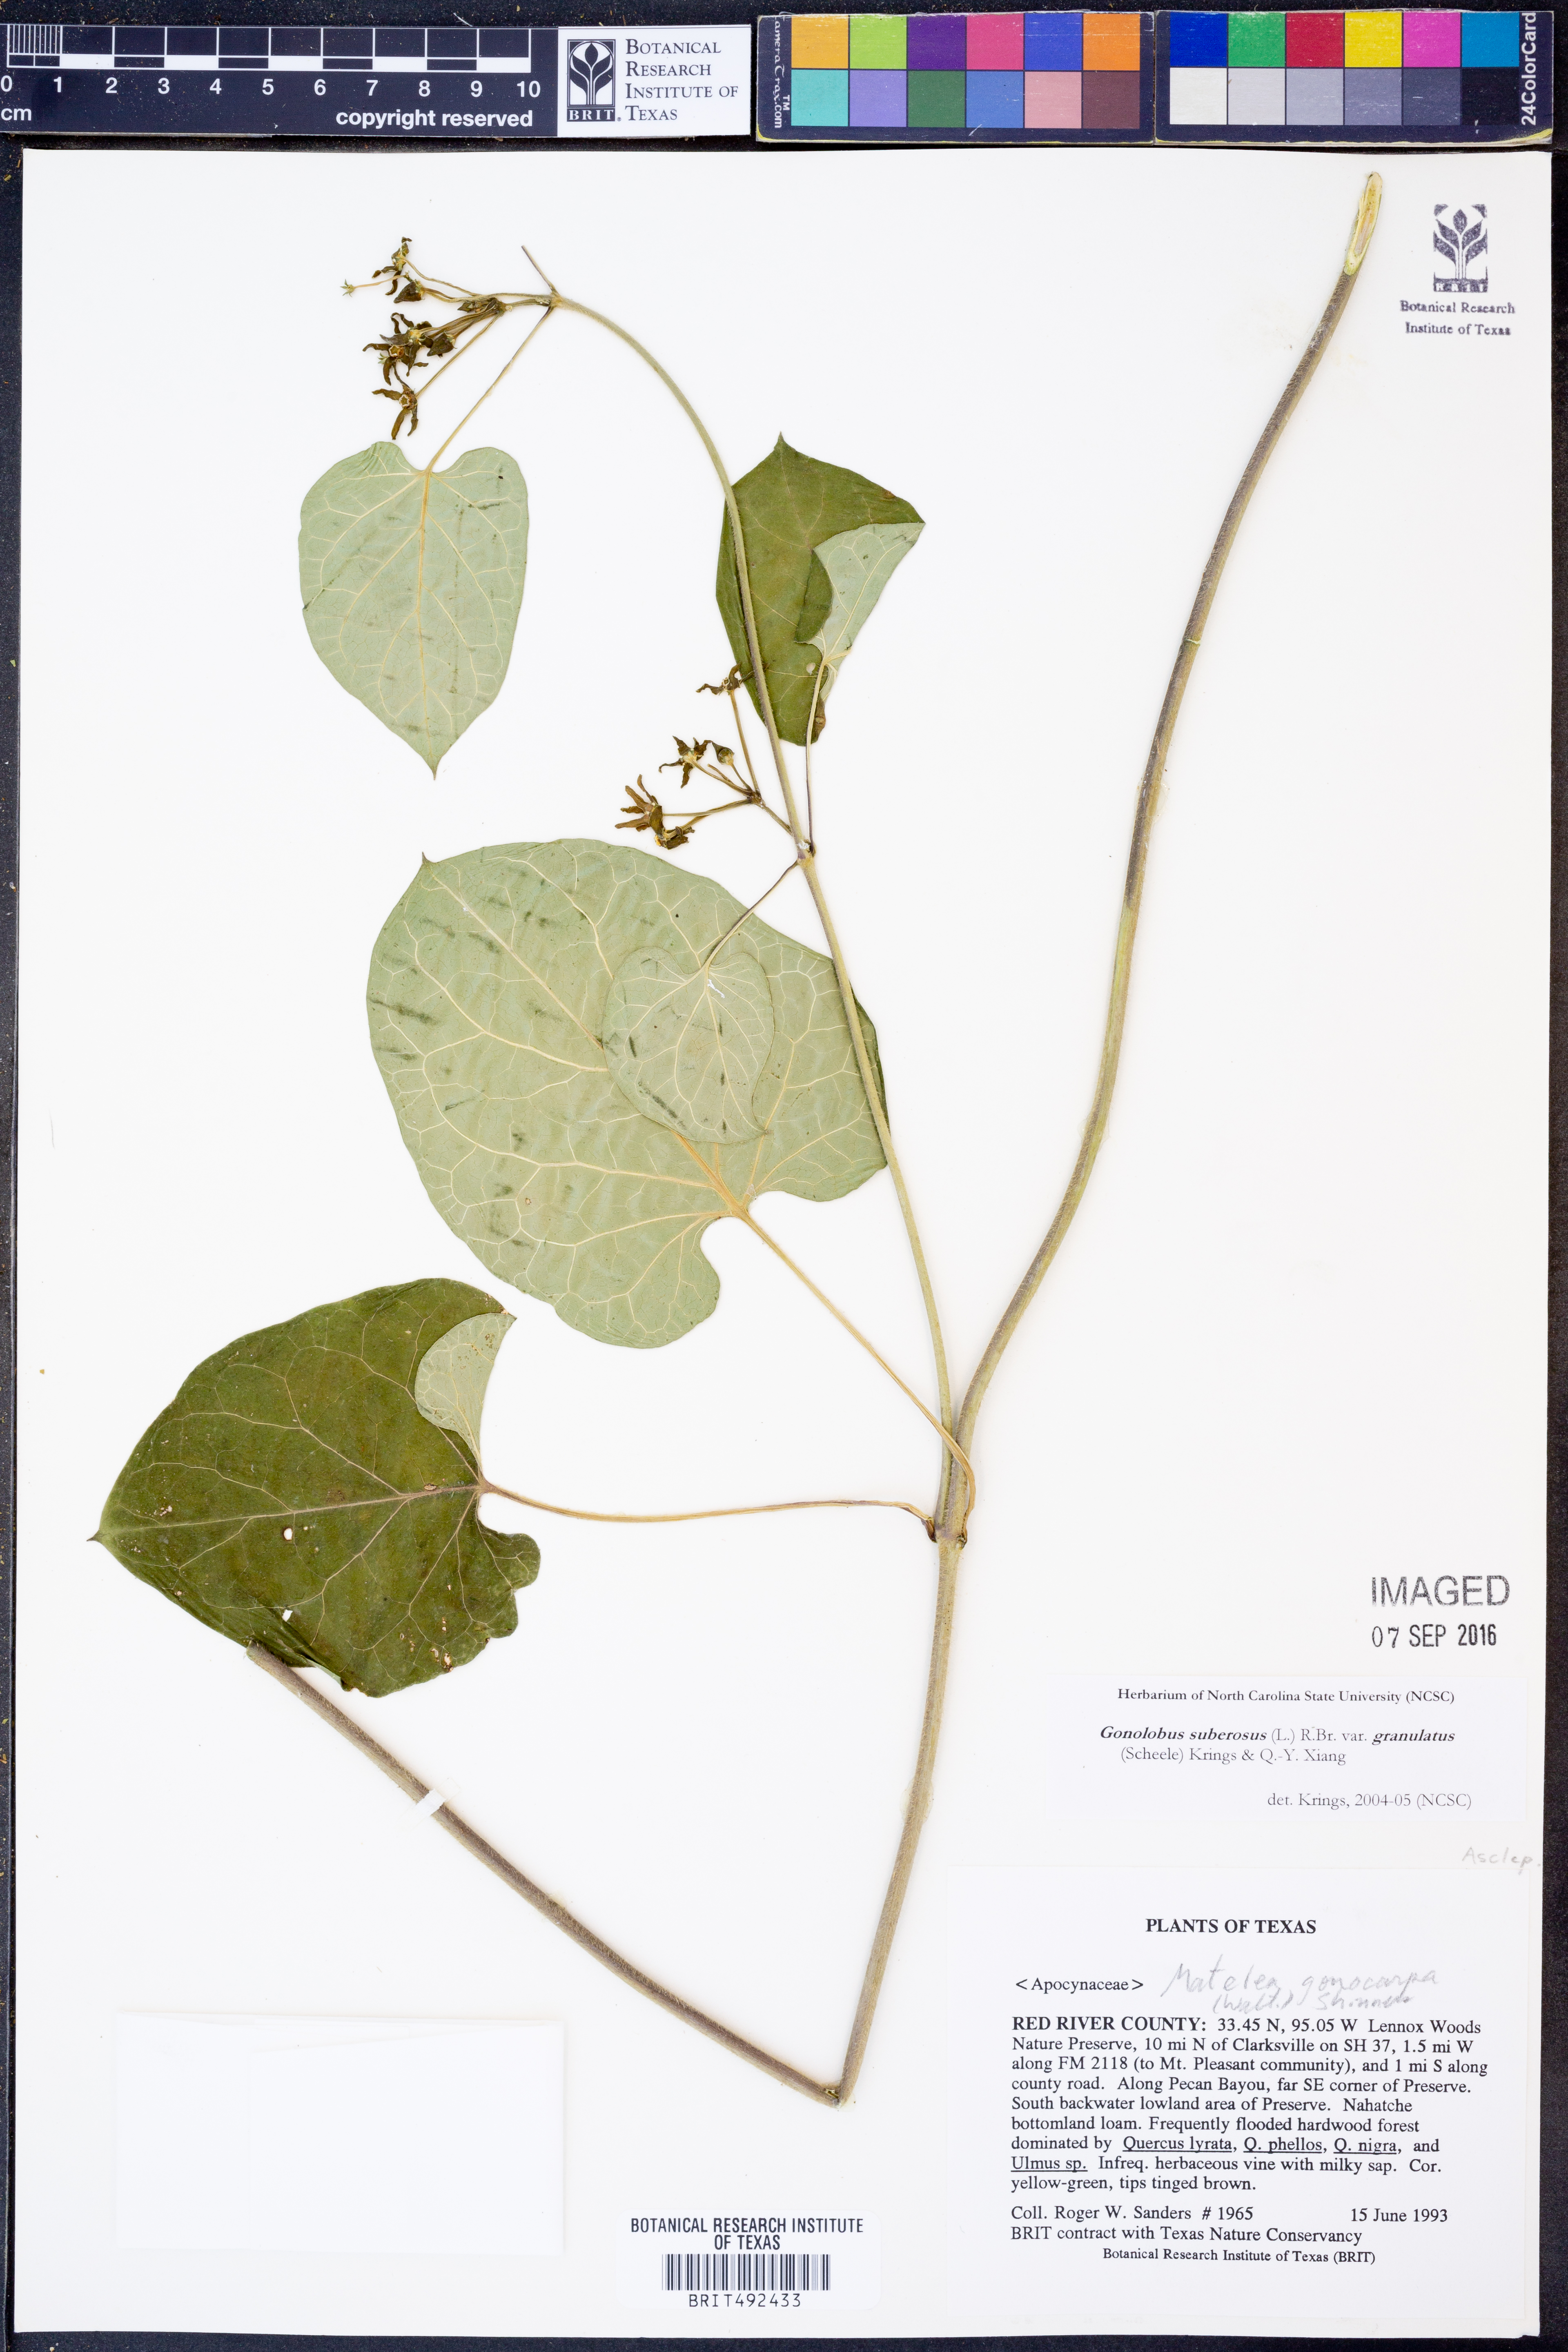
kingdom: Plantae
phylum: Tracheophyta
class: Magnoliopsida
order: Gentianales
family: Apocynaceae
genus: Gonolobus
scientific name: Gonolobus suberosus
